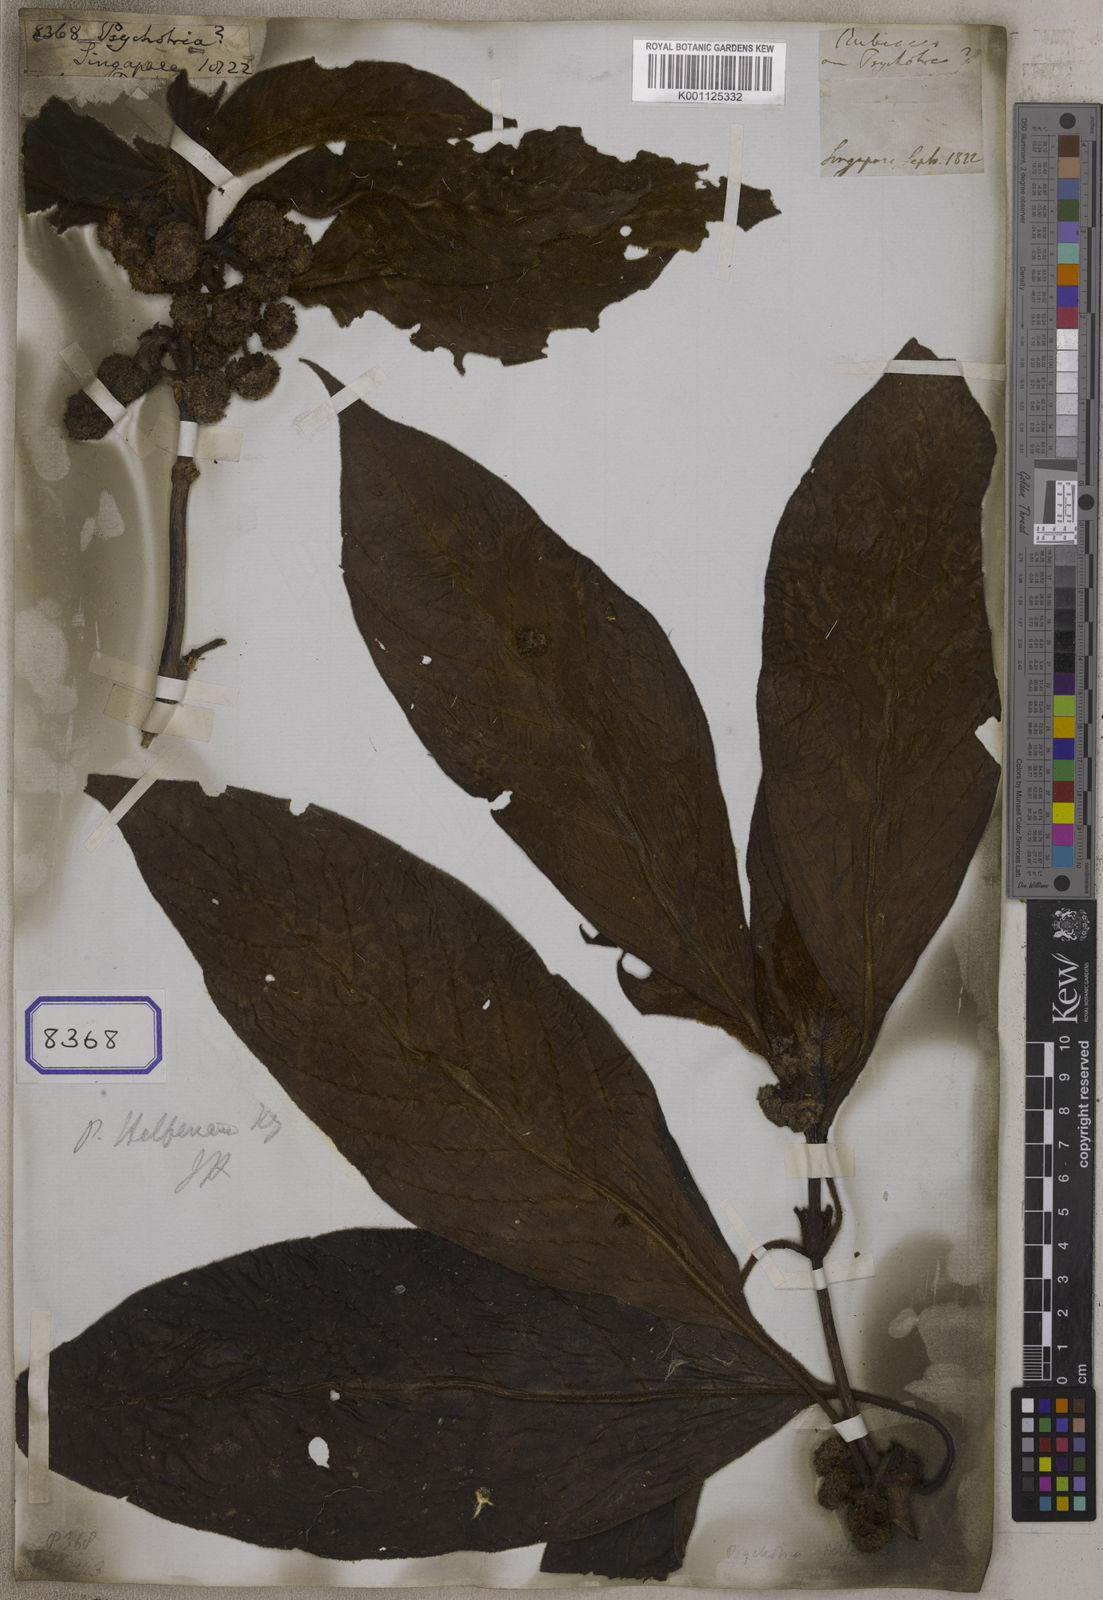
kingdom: Plantae
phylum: Tracheophyta
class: Magnoliopsida
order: Gentianales
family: Rubiaceae
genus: Psychotria
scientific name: Psychotria
